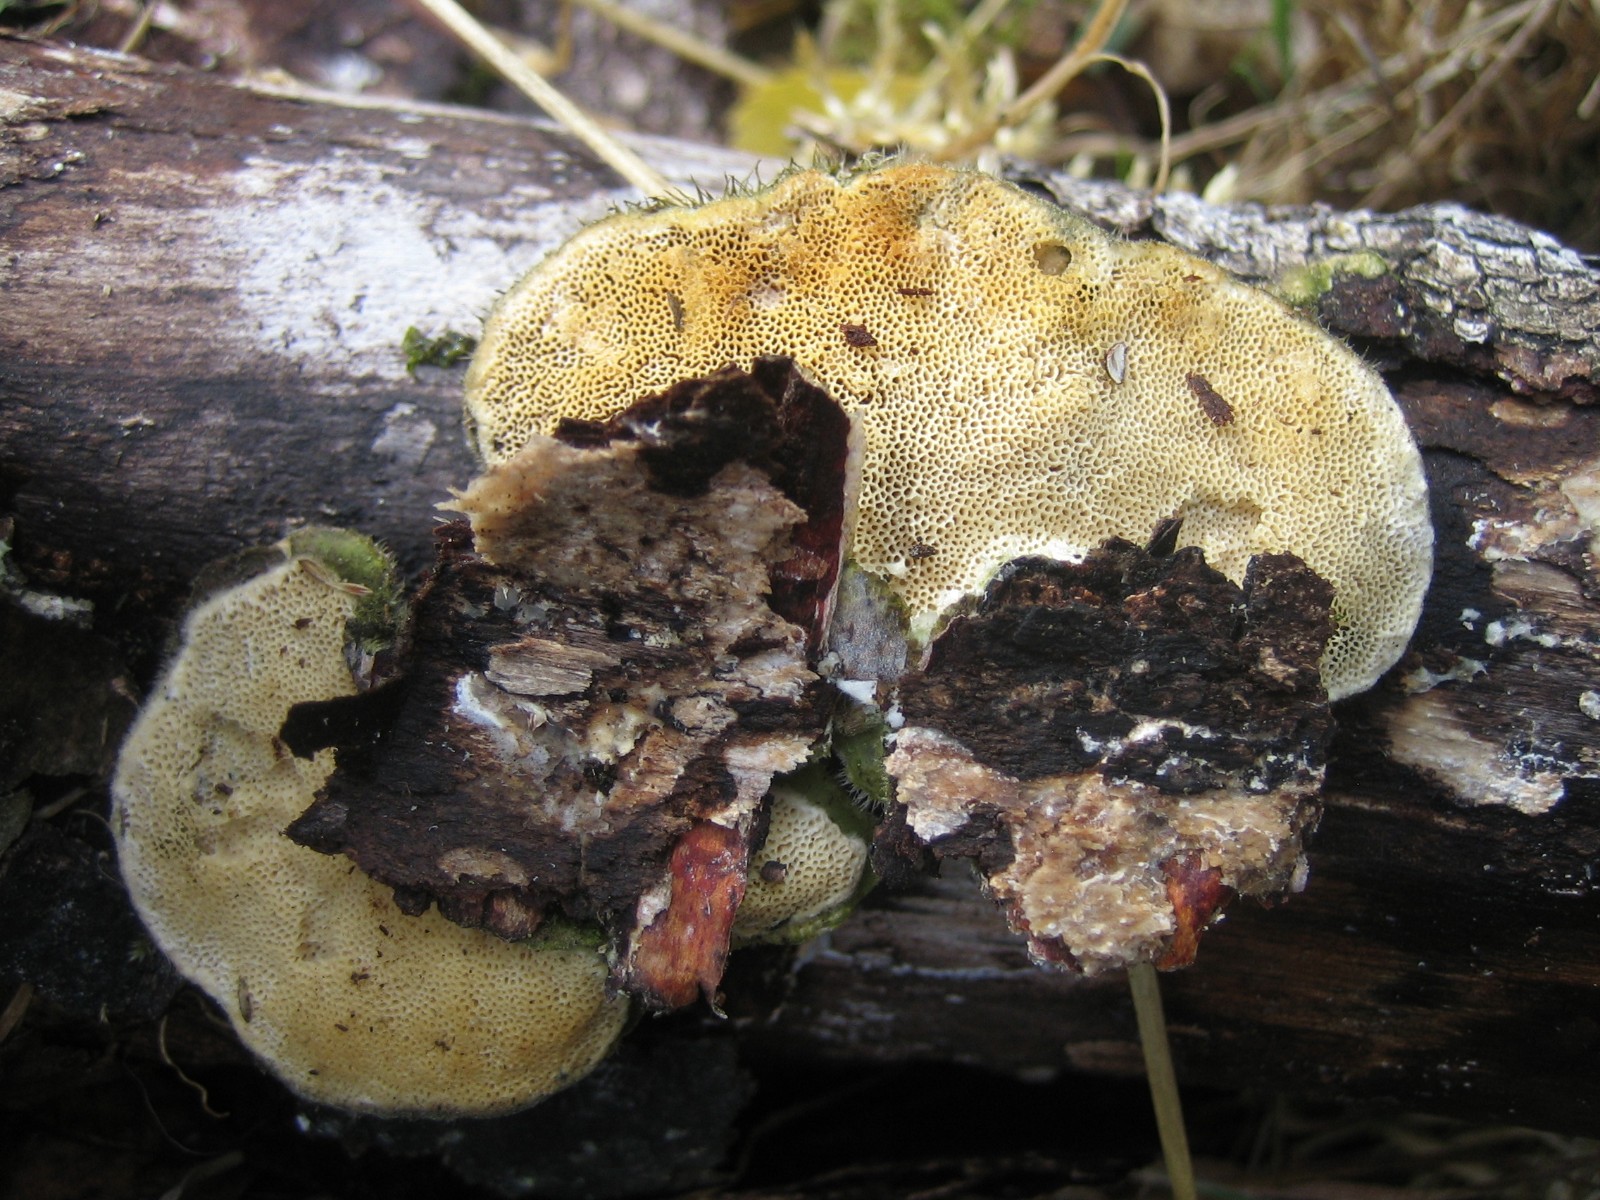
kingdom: Fungi
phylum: Basidiomycota
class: Agaricomycetes
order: Polyporales
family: Polyporaceae
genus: Trametes
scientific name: Trametes hirsuta
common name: håret læderporesvamp
